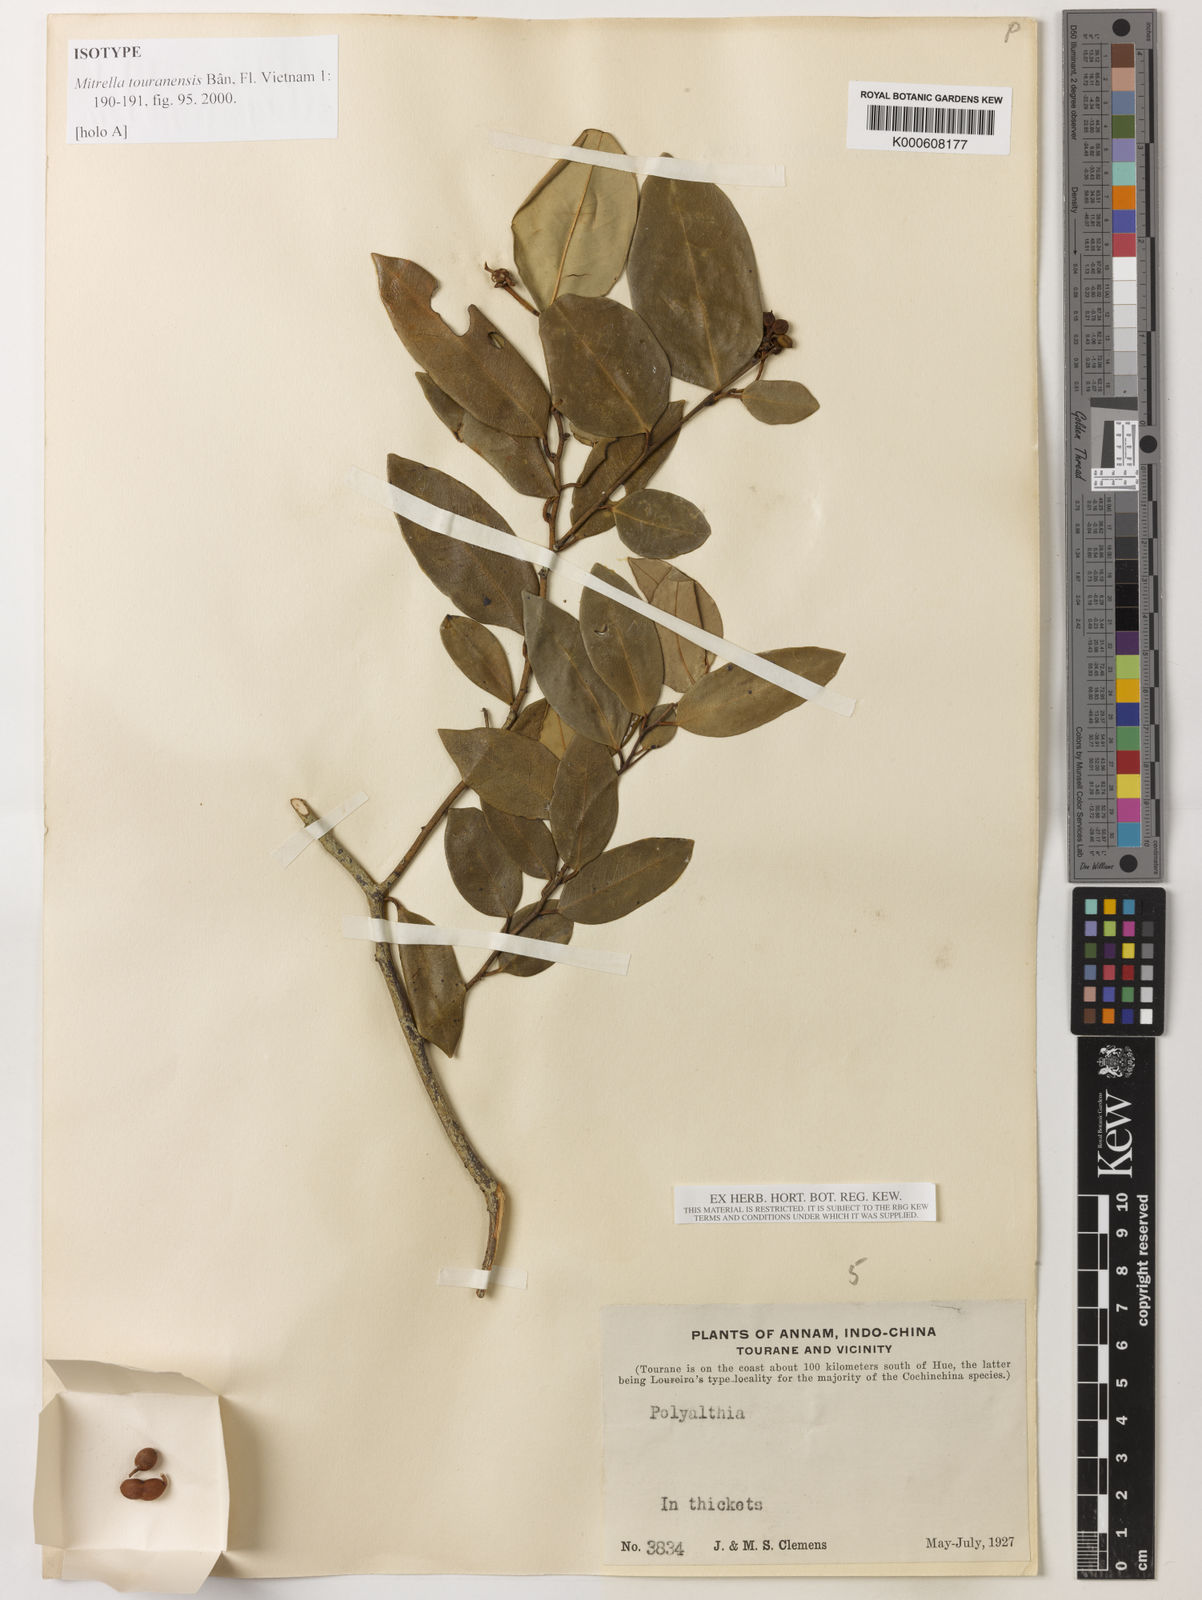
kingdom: Plantae
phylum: Tracheophyta
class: Magnoliopsida
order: Magnoliales
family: Annonaceae
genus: Mitrella
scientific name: Mitrella
